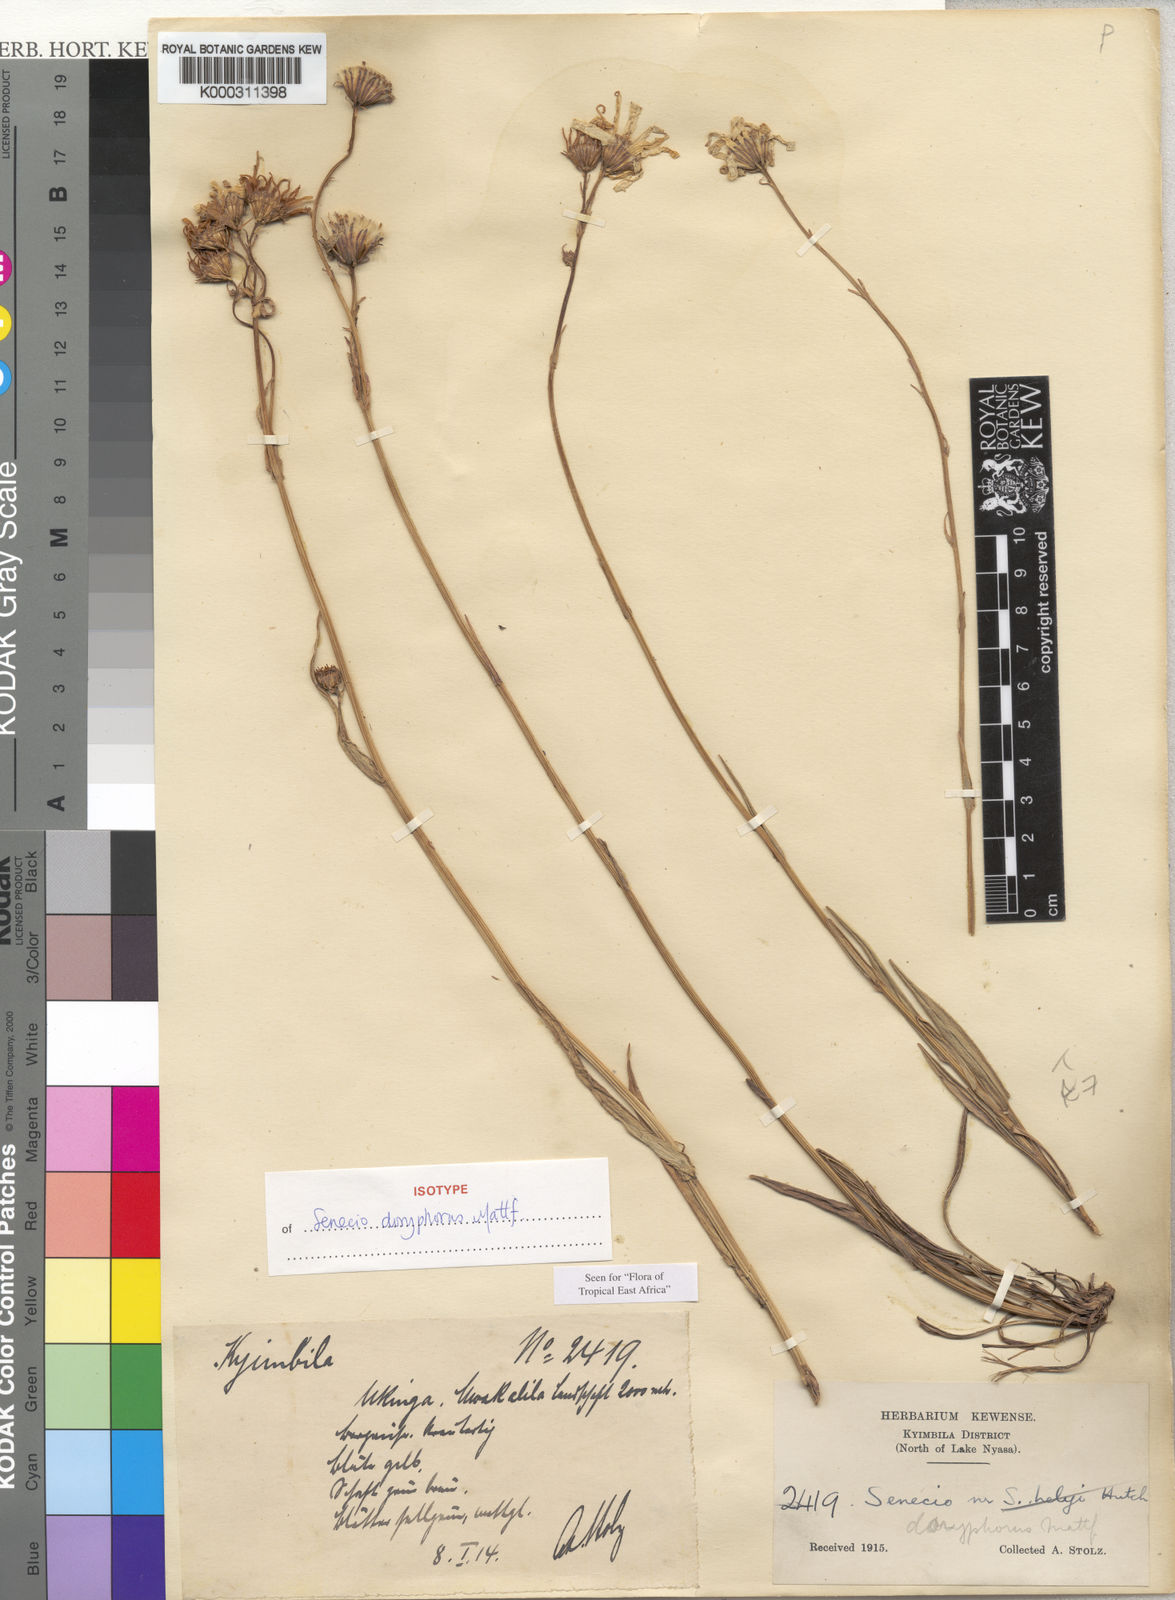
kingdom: Plantae
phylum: Tracheophyta
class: Magnoliopsida
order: Asterales
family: Asteraceae
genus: Senecio
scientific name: Senecio doryphorus
